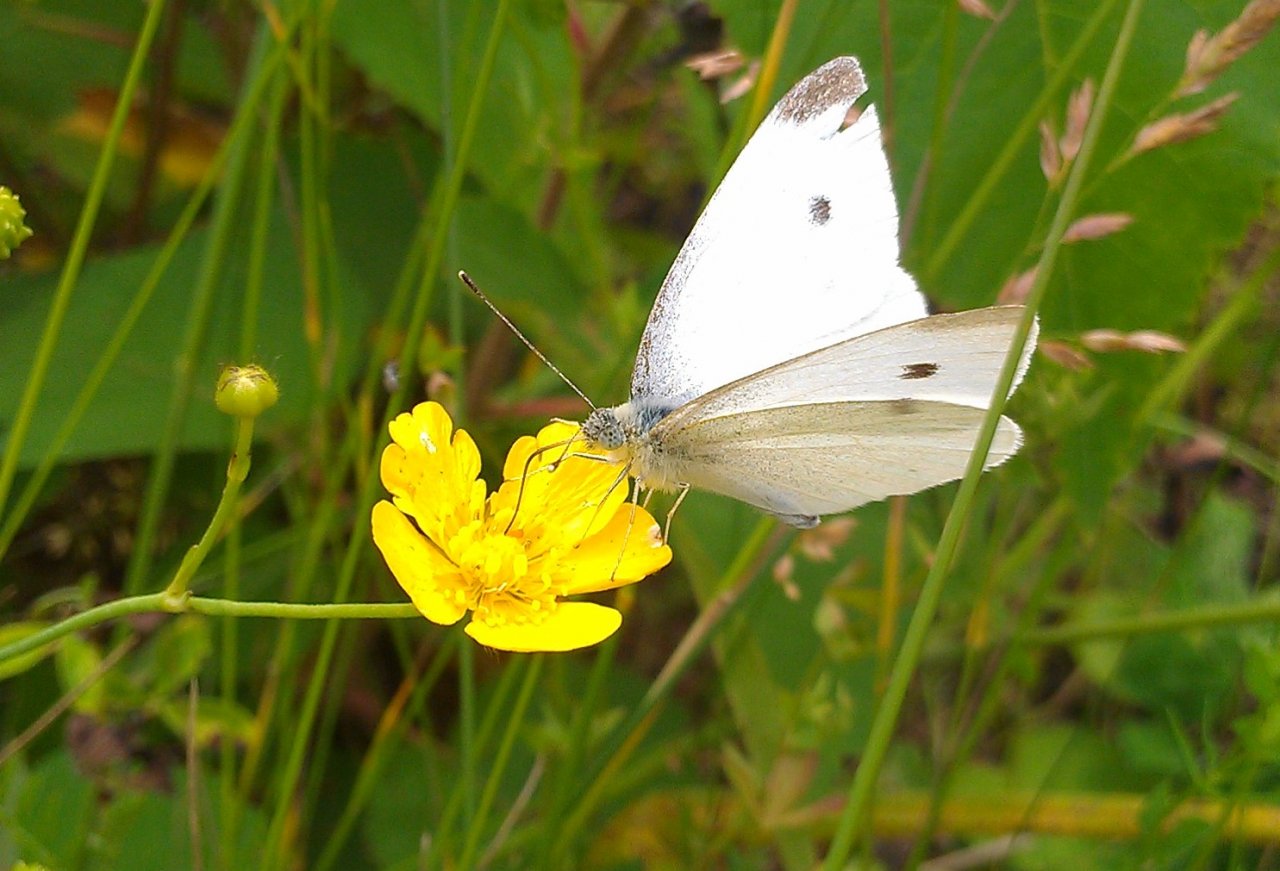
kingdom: Animalia
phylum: Arthropoda
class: Insecta
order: Lepidoptera
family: Pieridae
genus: Pieris
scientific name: Pieris rapae
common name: Cabbage White
